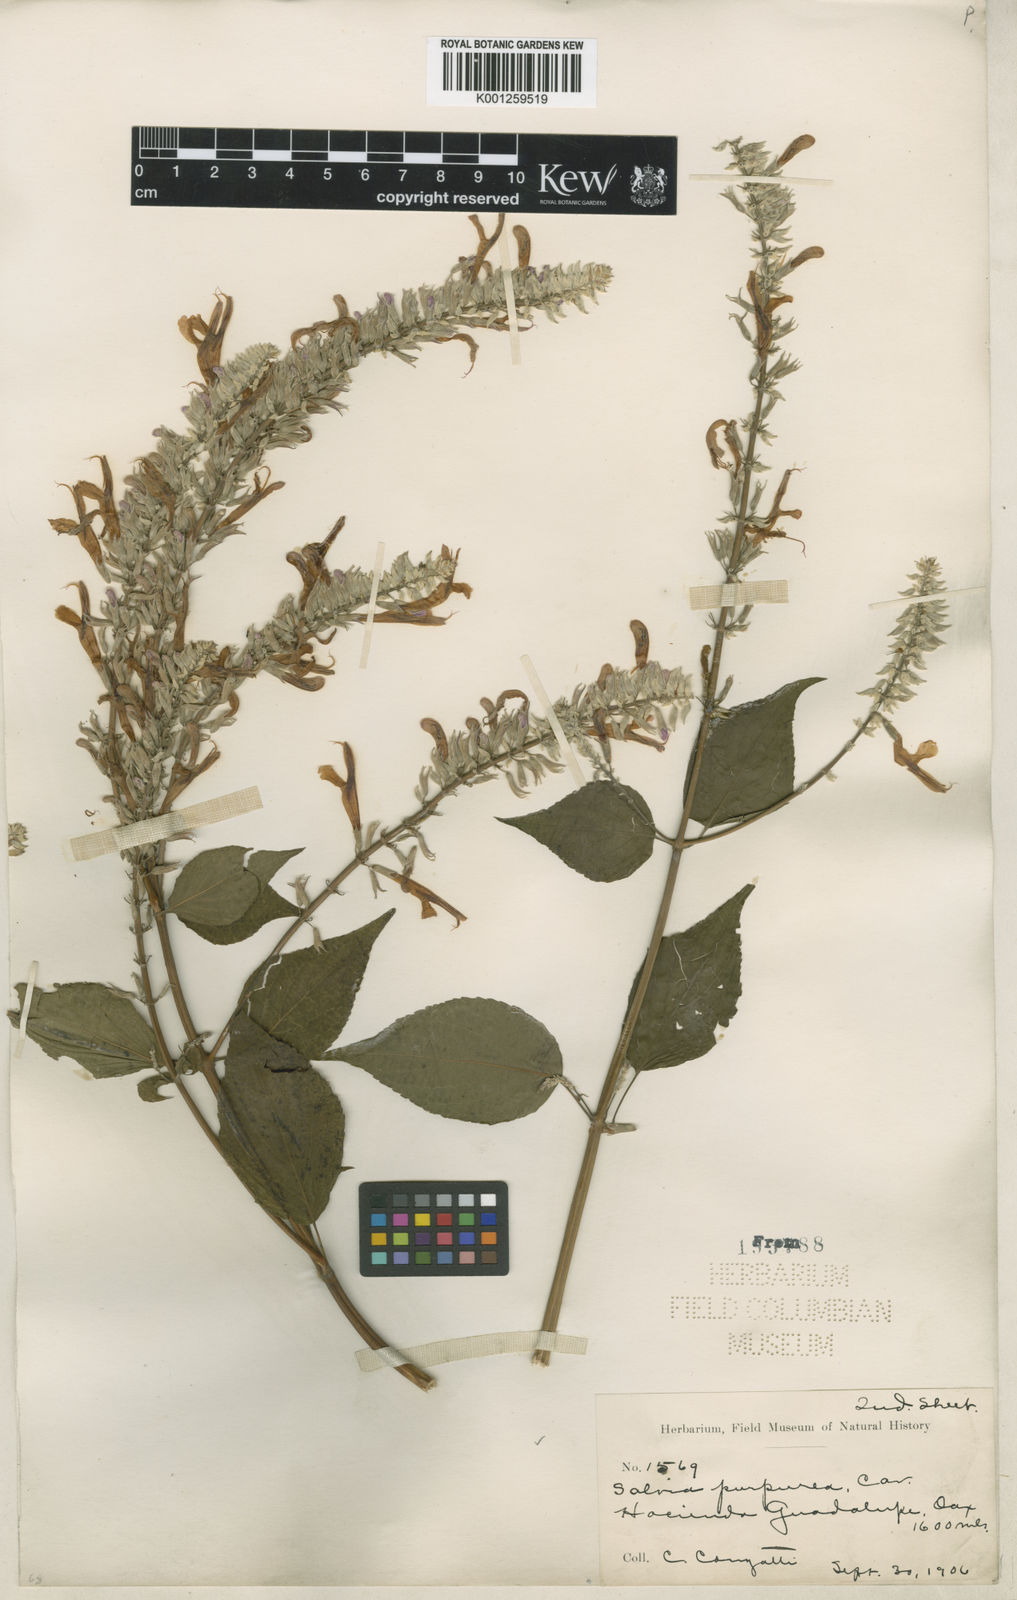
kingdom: Plantae
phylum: Tracheophyta
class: Magnoliopsida
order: Lamiales
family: Lamiaceae
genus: Salvia
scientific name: Salvia
